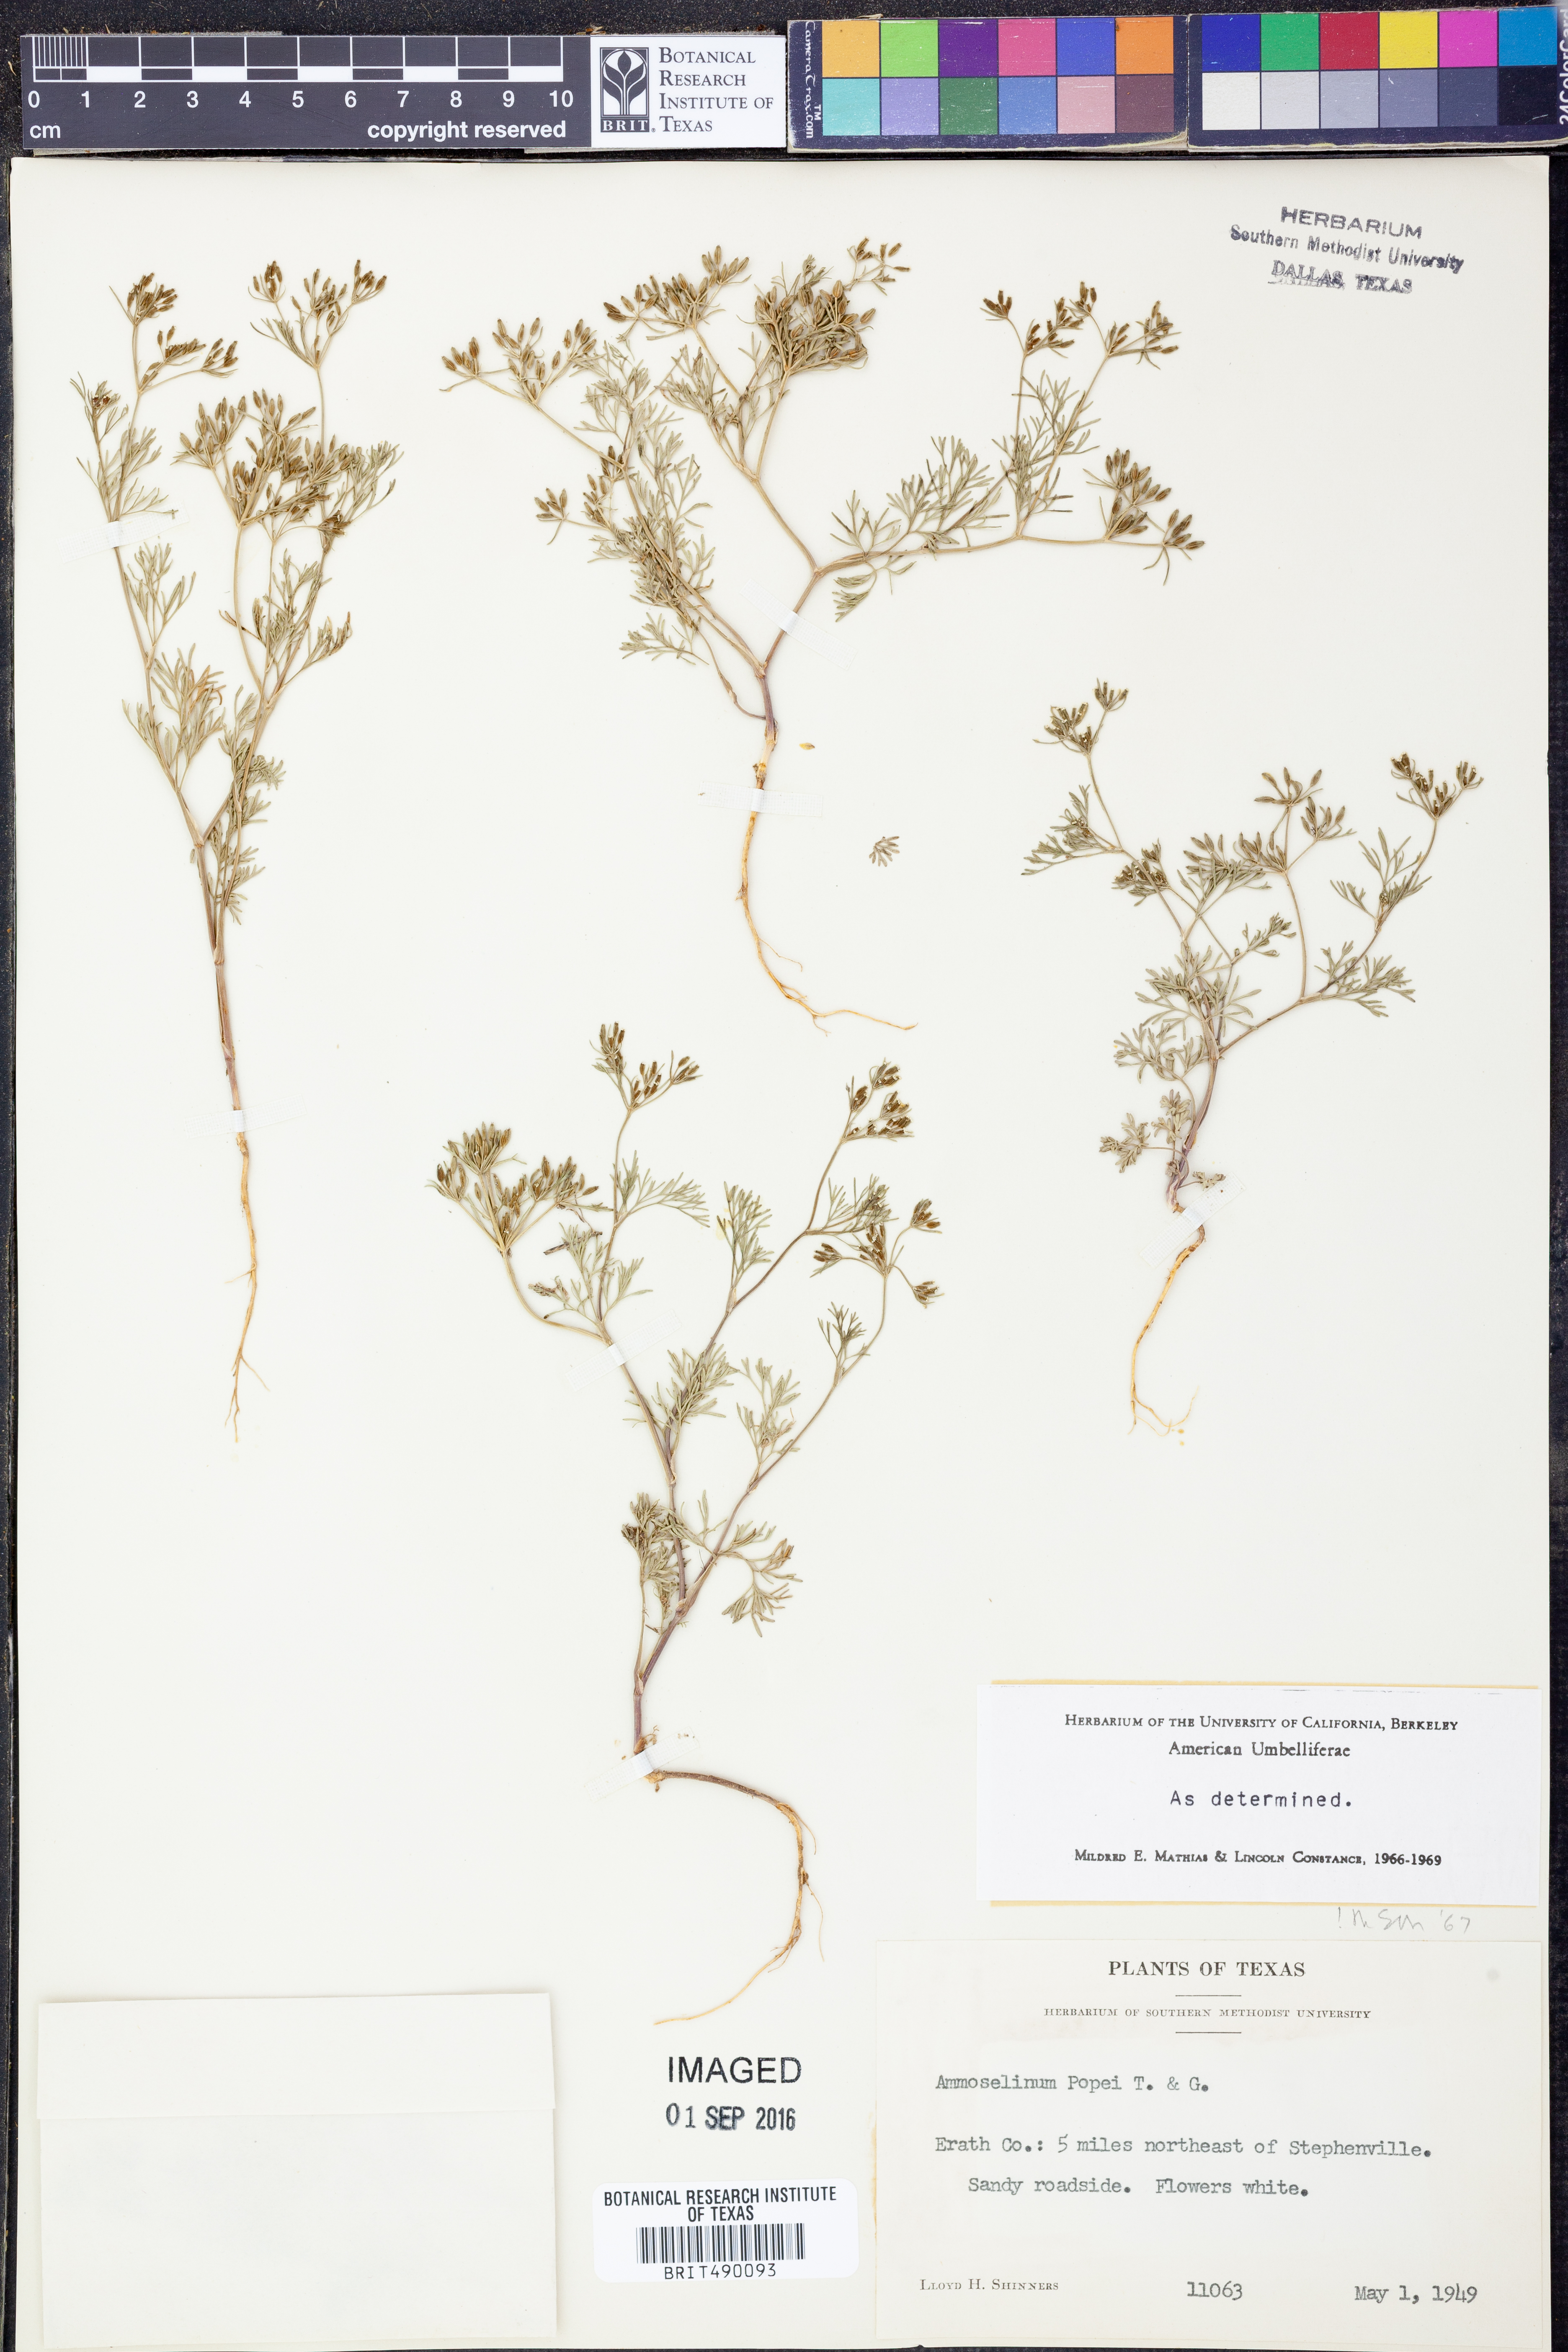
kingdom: Plantae
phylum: Tracheophyta
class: Magnoliopsida
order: Apiales
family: Apiaceae
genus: Ammoselinum
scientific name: Ammoselinum popei
